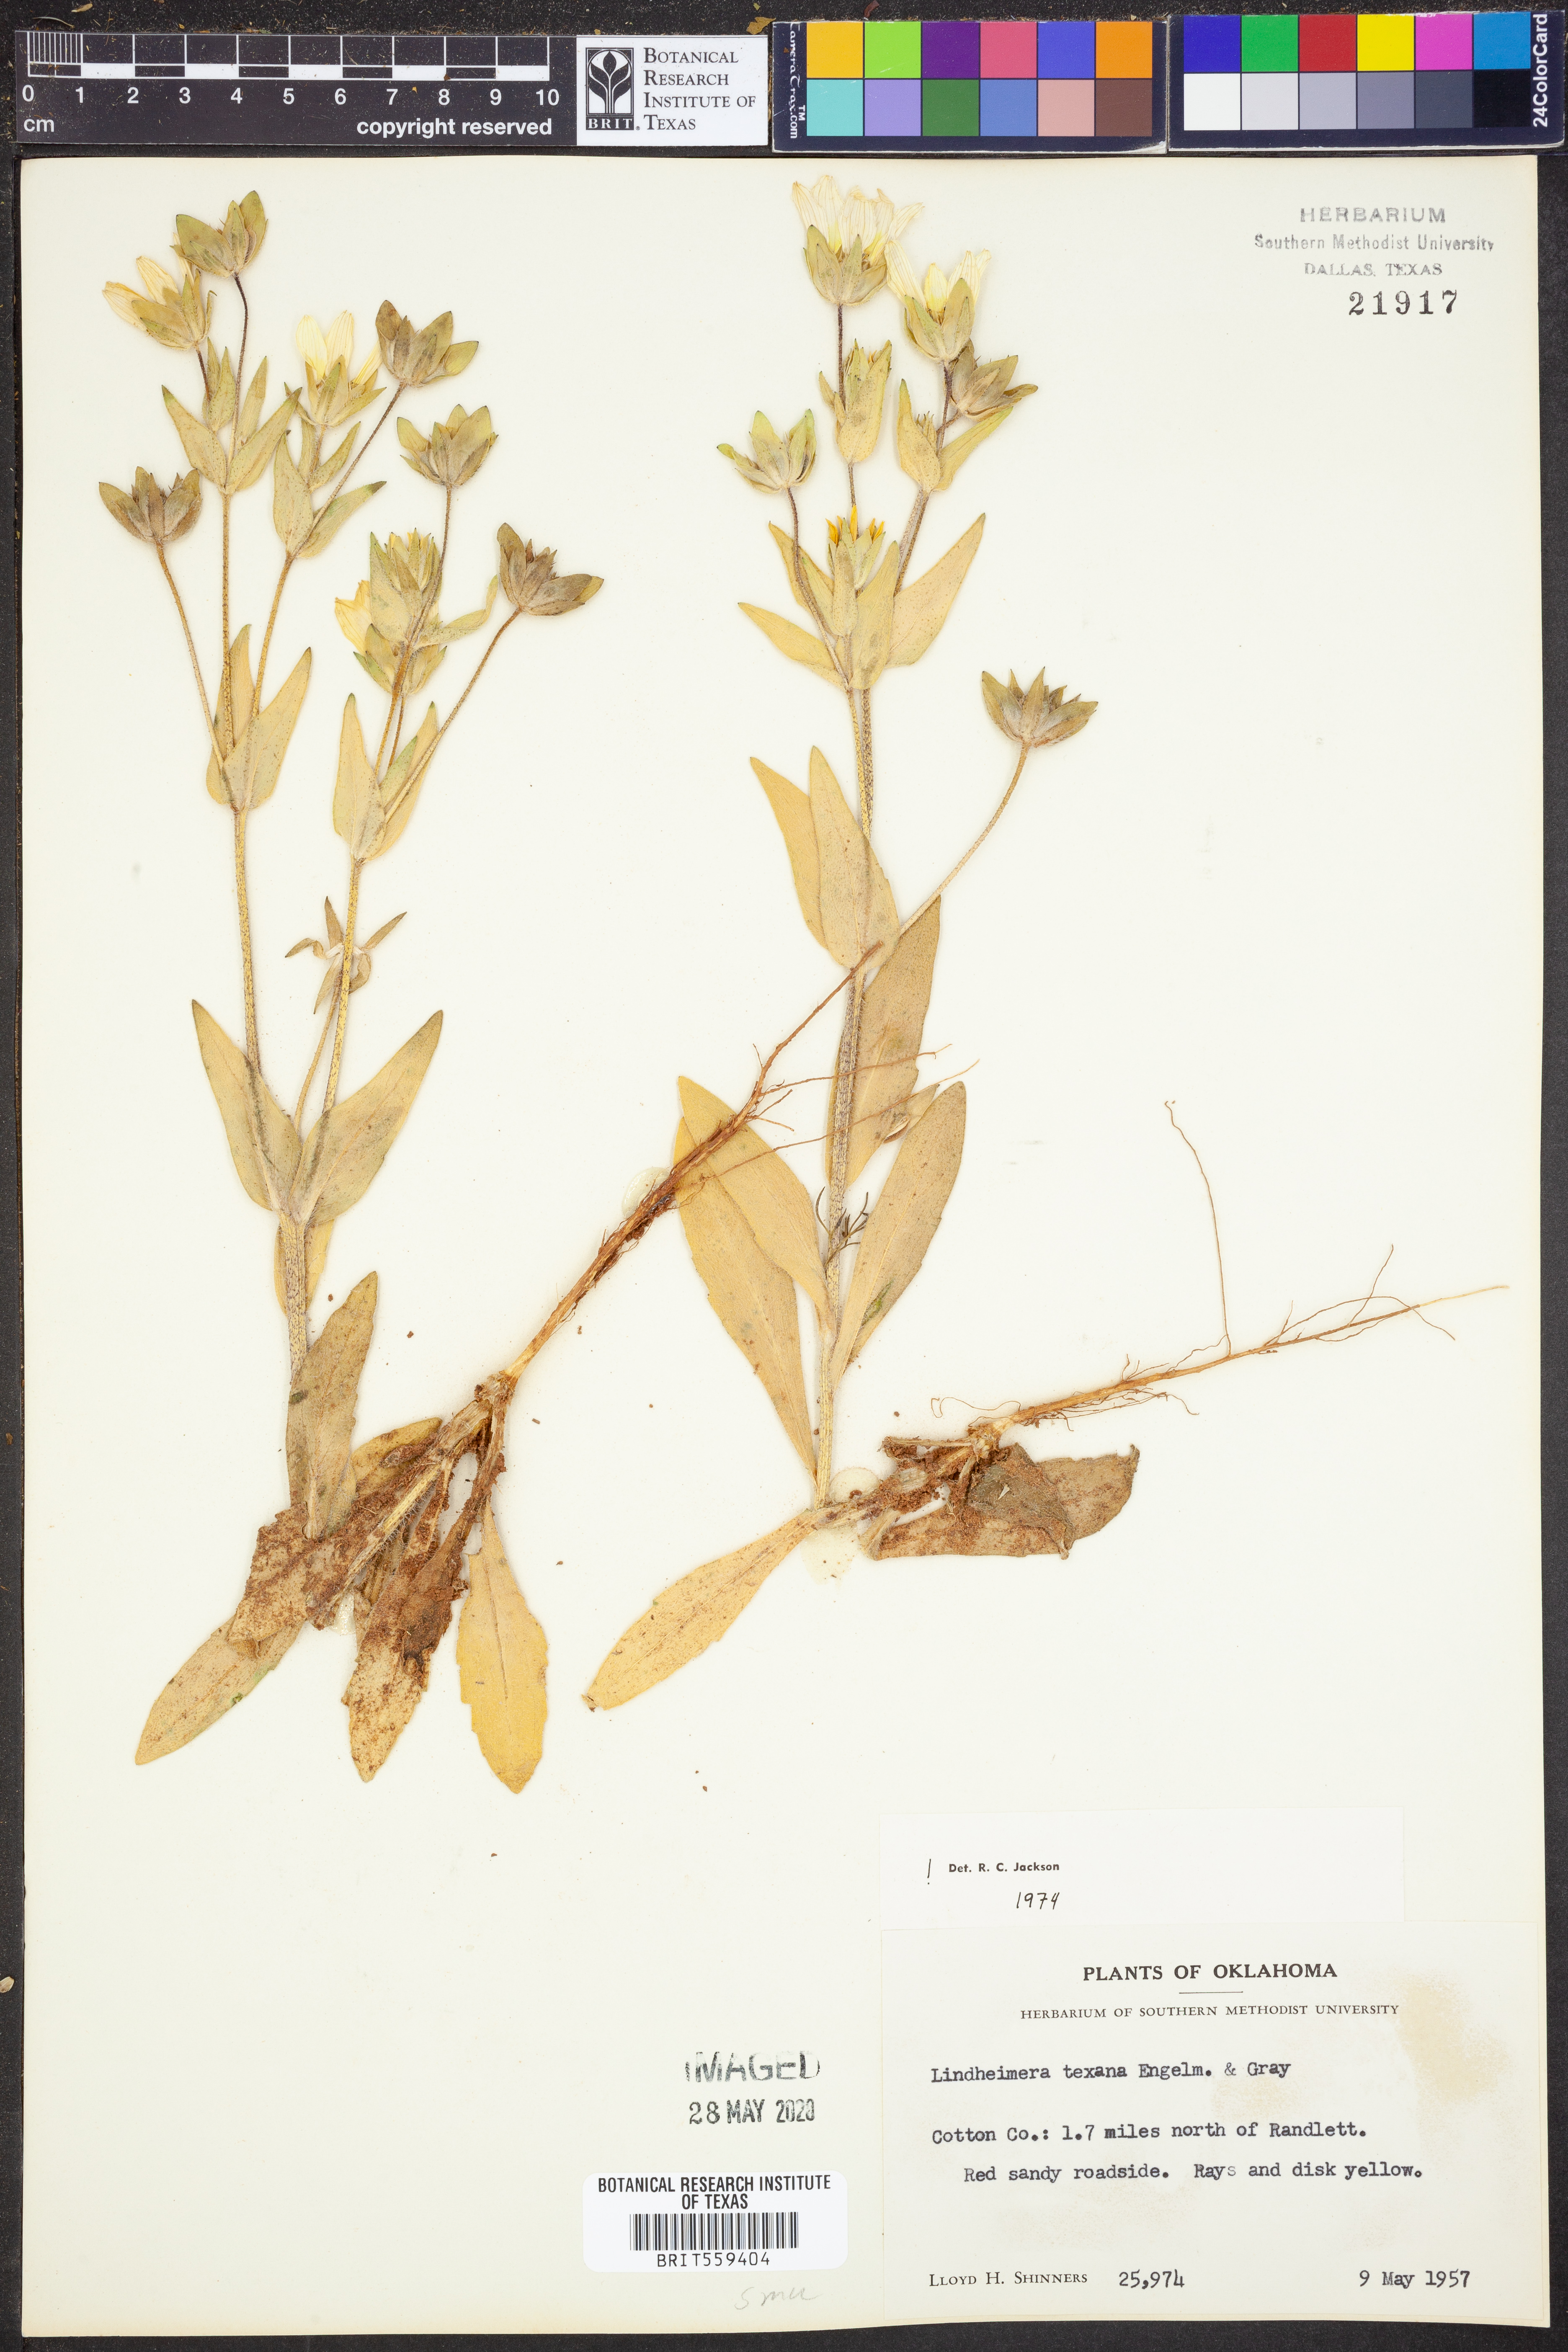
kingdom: Plantae
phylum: Tracheophyta
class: Magnoliopsida
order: Asterales
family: Asteraceae
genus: Lindheimera
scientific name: Lindheimera texana
